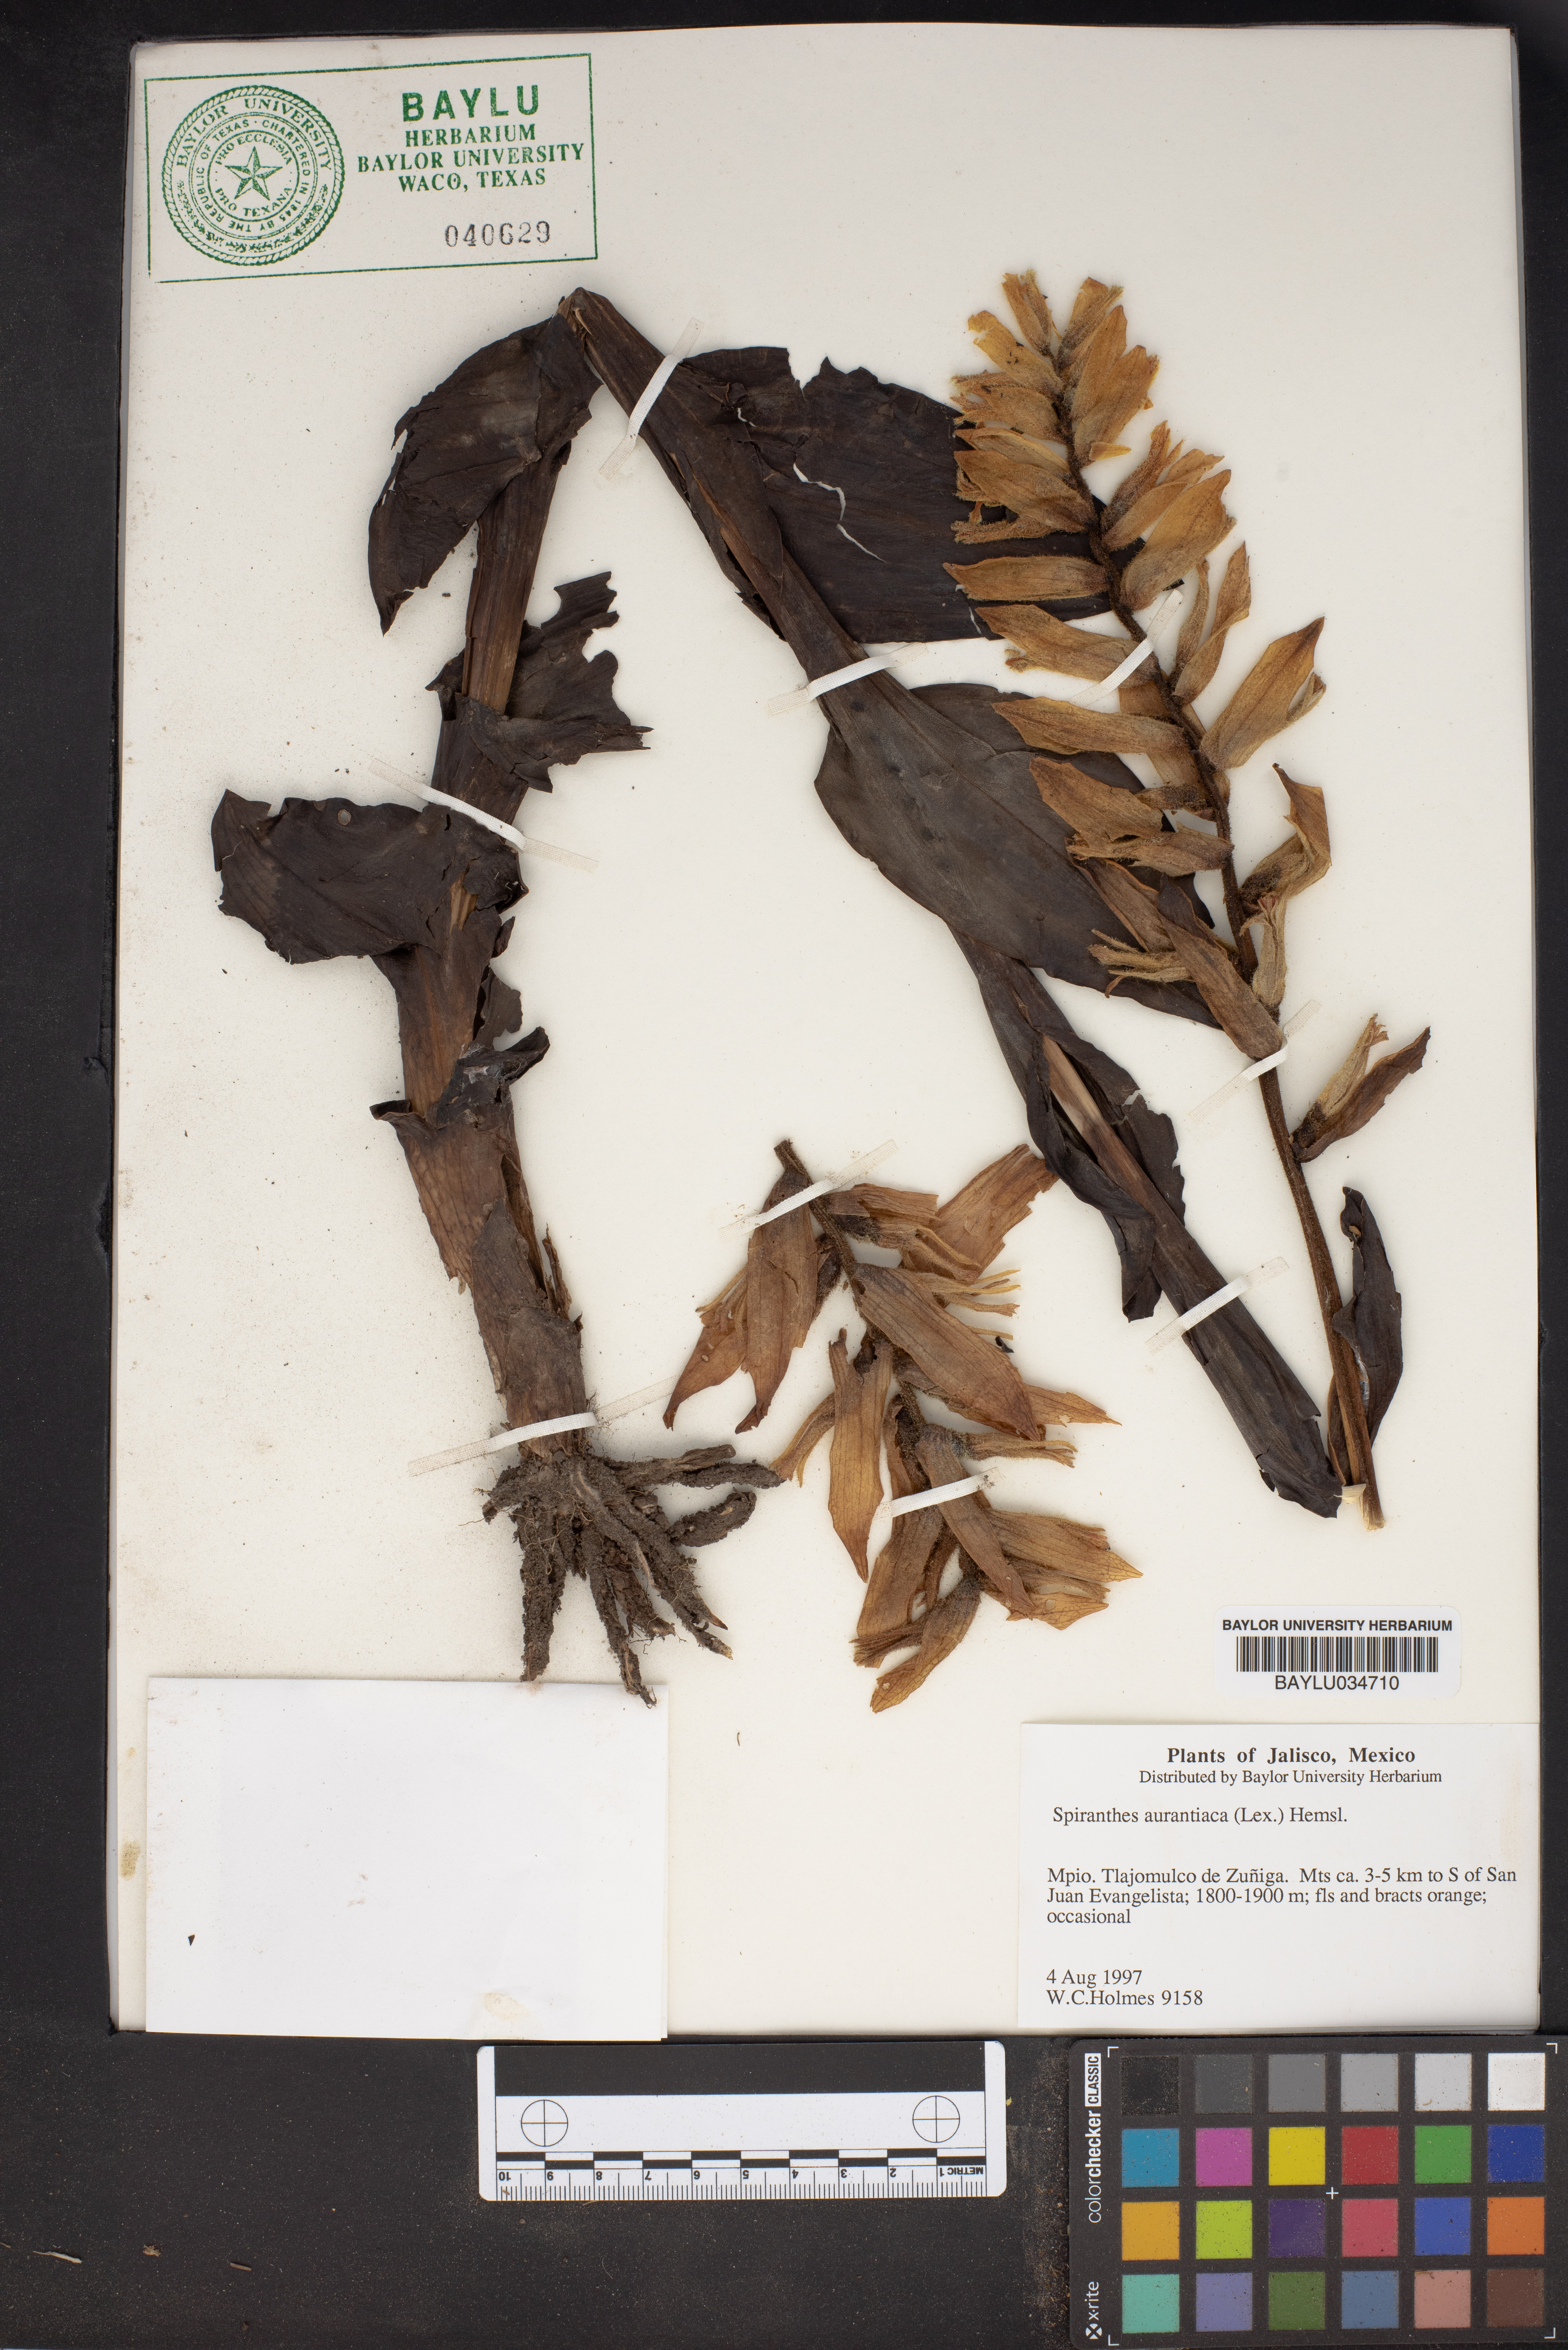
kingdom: Plantae
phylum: Tracheophyta
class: Liliopsida
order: Asparagales
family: Orchidaceae
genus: Dichromanthus
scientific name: Dichromanthus aurantiacus
